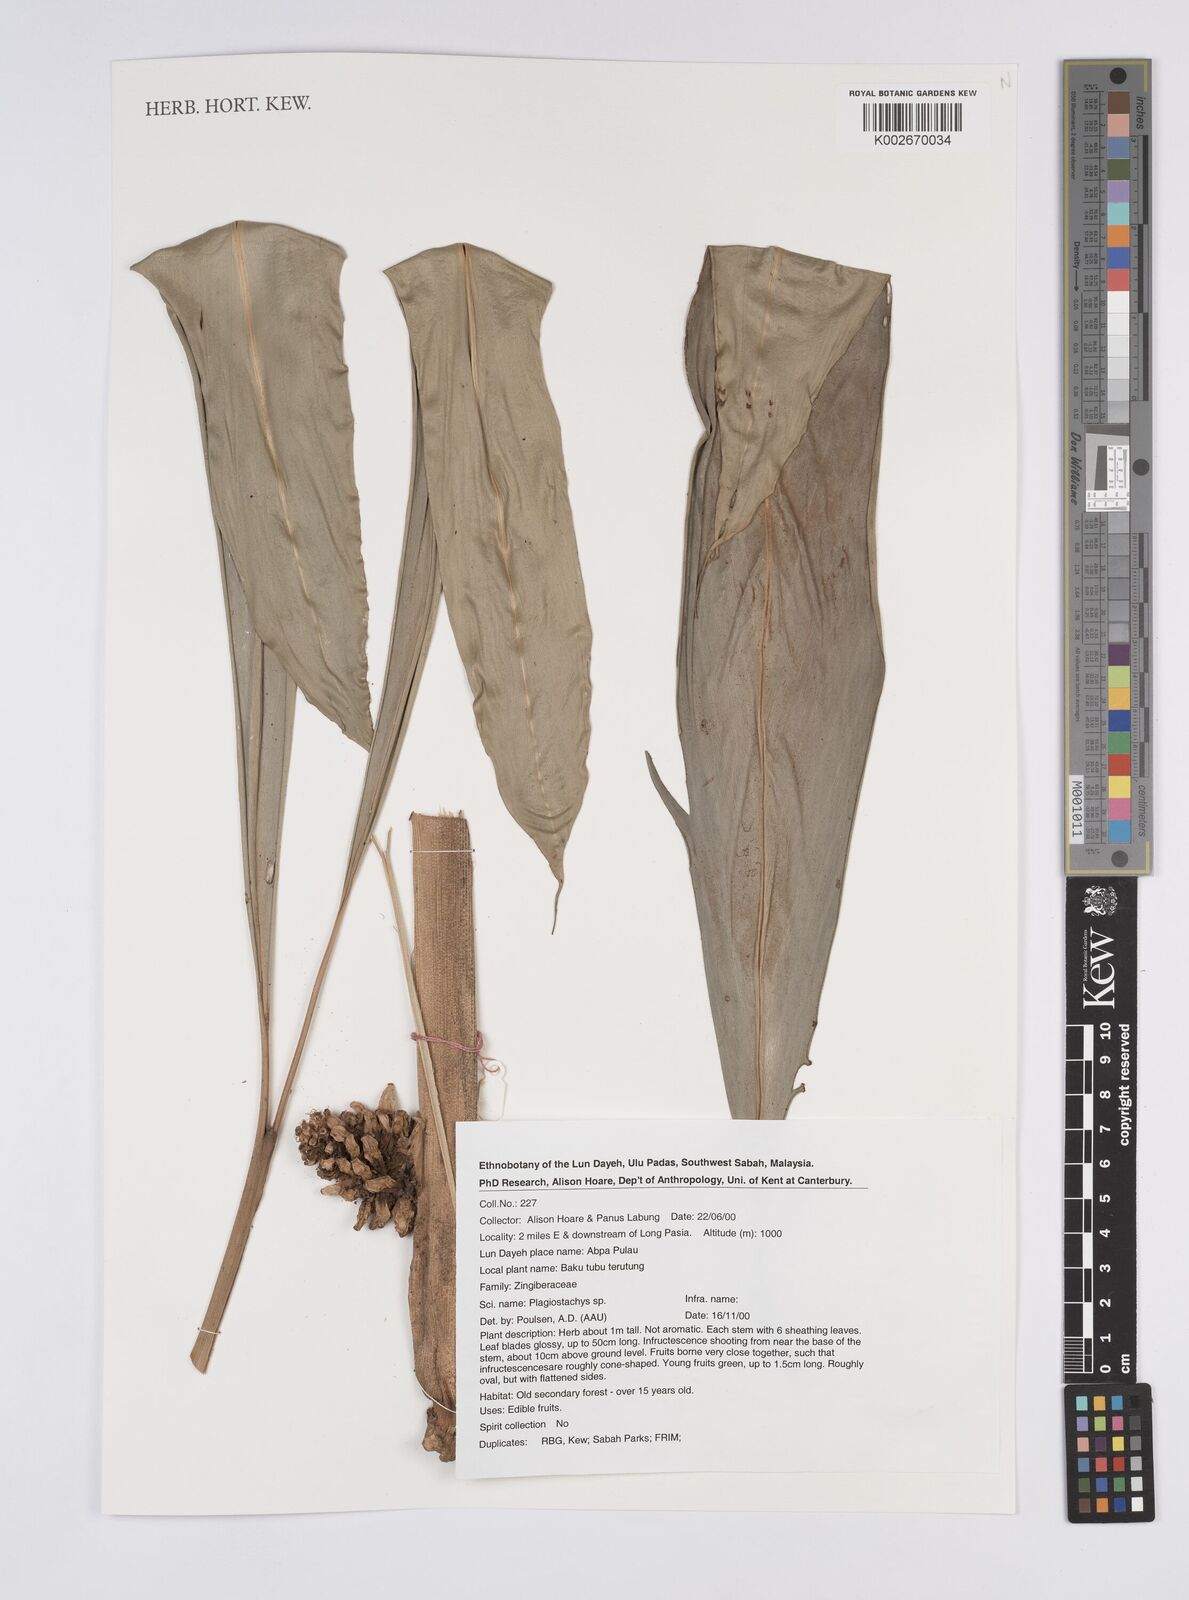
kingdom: Plantae
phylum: Tracheophyta
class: Liliopsida
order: Zingiberales
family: Zingiberaceae
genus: Plagiostachys
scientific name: Plagiostachys
